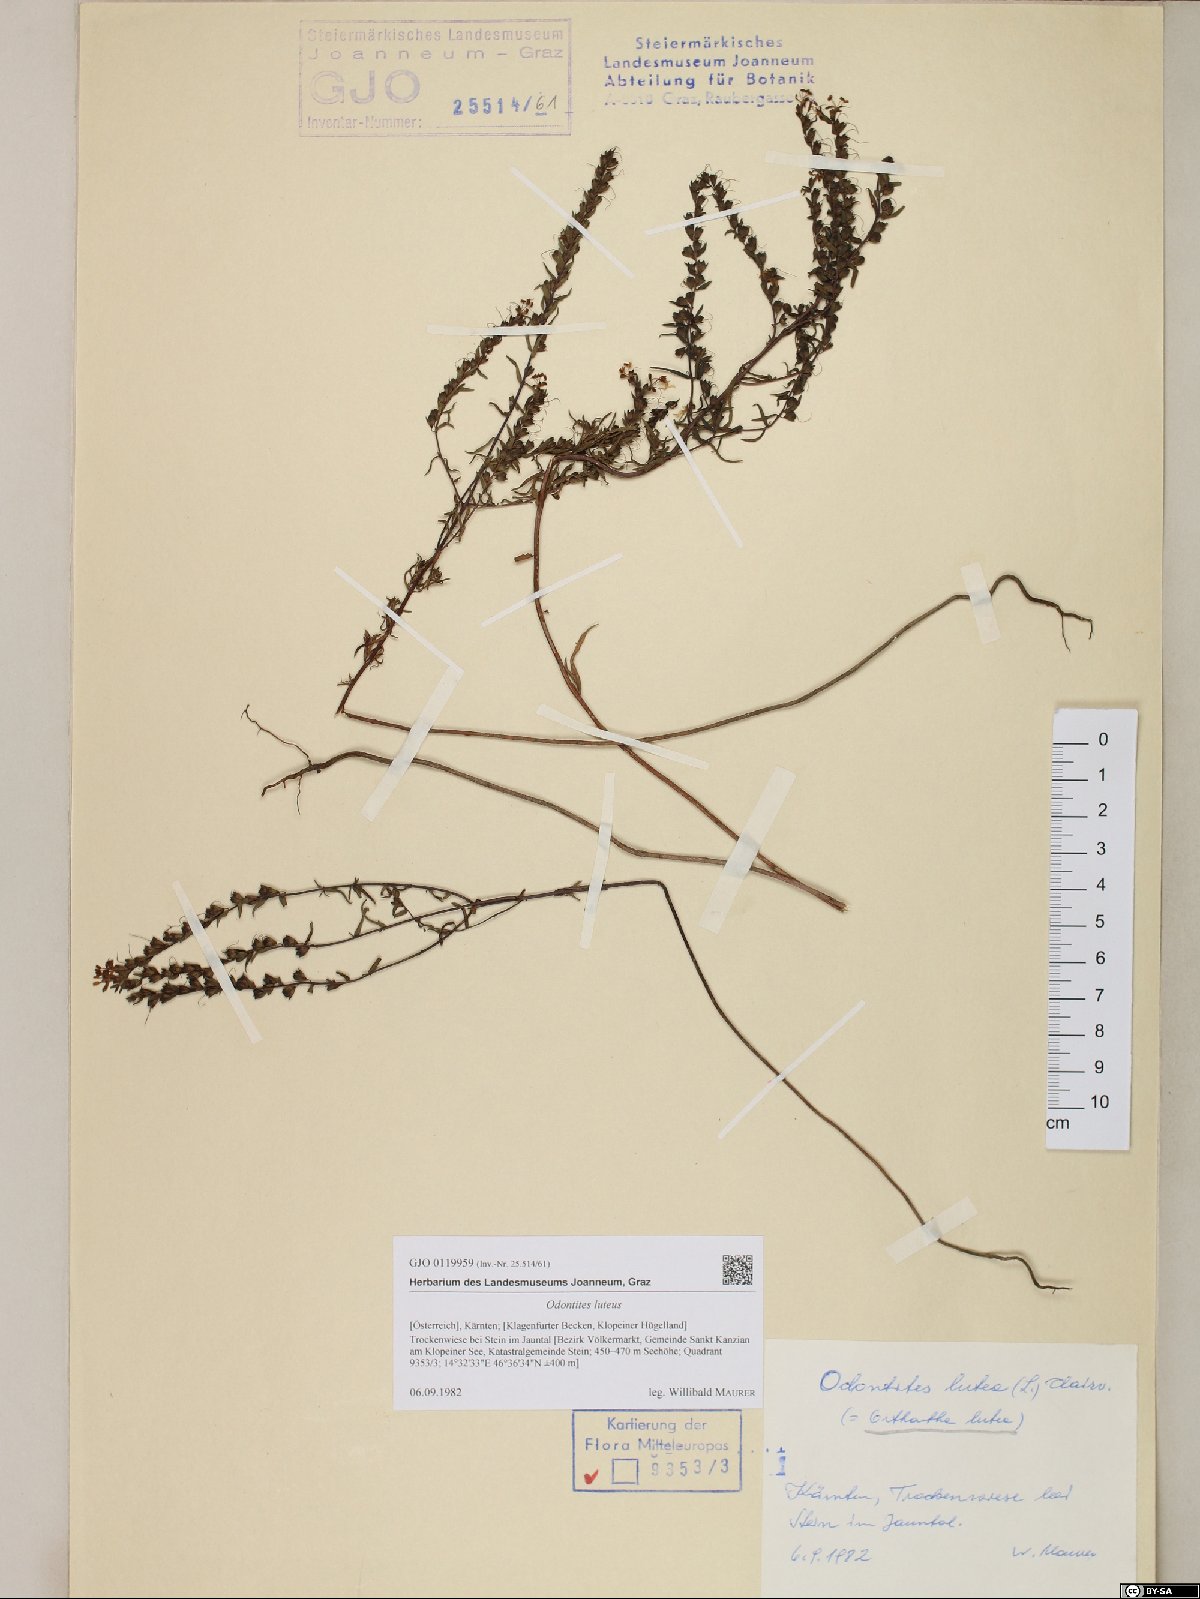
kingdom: Plantae
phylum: Tracheophyta
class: Magnoliopsida
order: Lamiales
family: Orobanchaceae
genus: Odontites
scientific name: Odontites luteus
